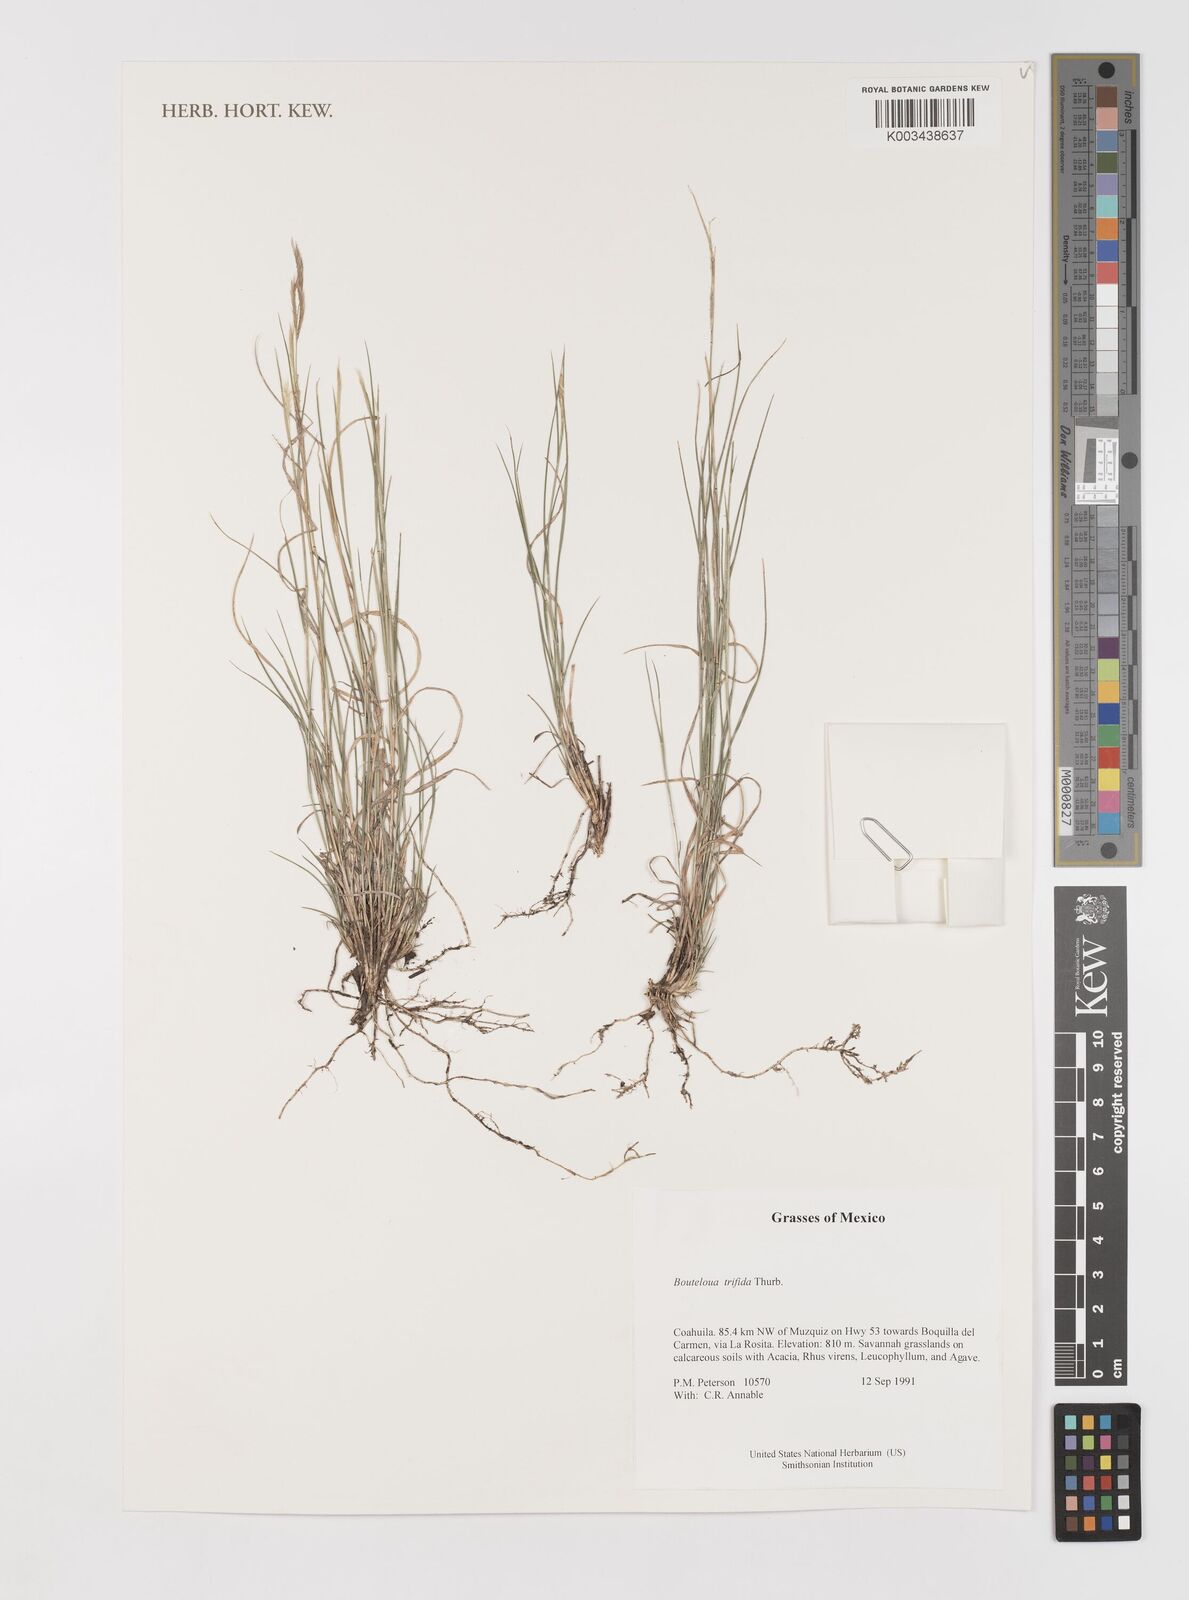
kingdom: Plantae
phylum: Tracheophyta
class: Liliopsida
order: Poales
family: Poaceae
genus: Bouteloua
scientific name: Bouteloua
